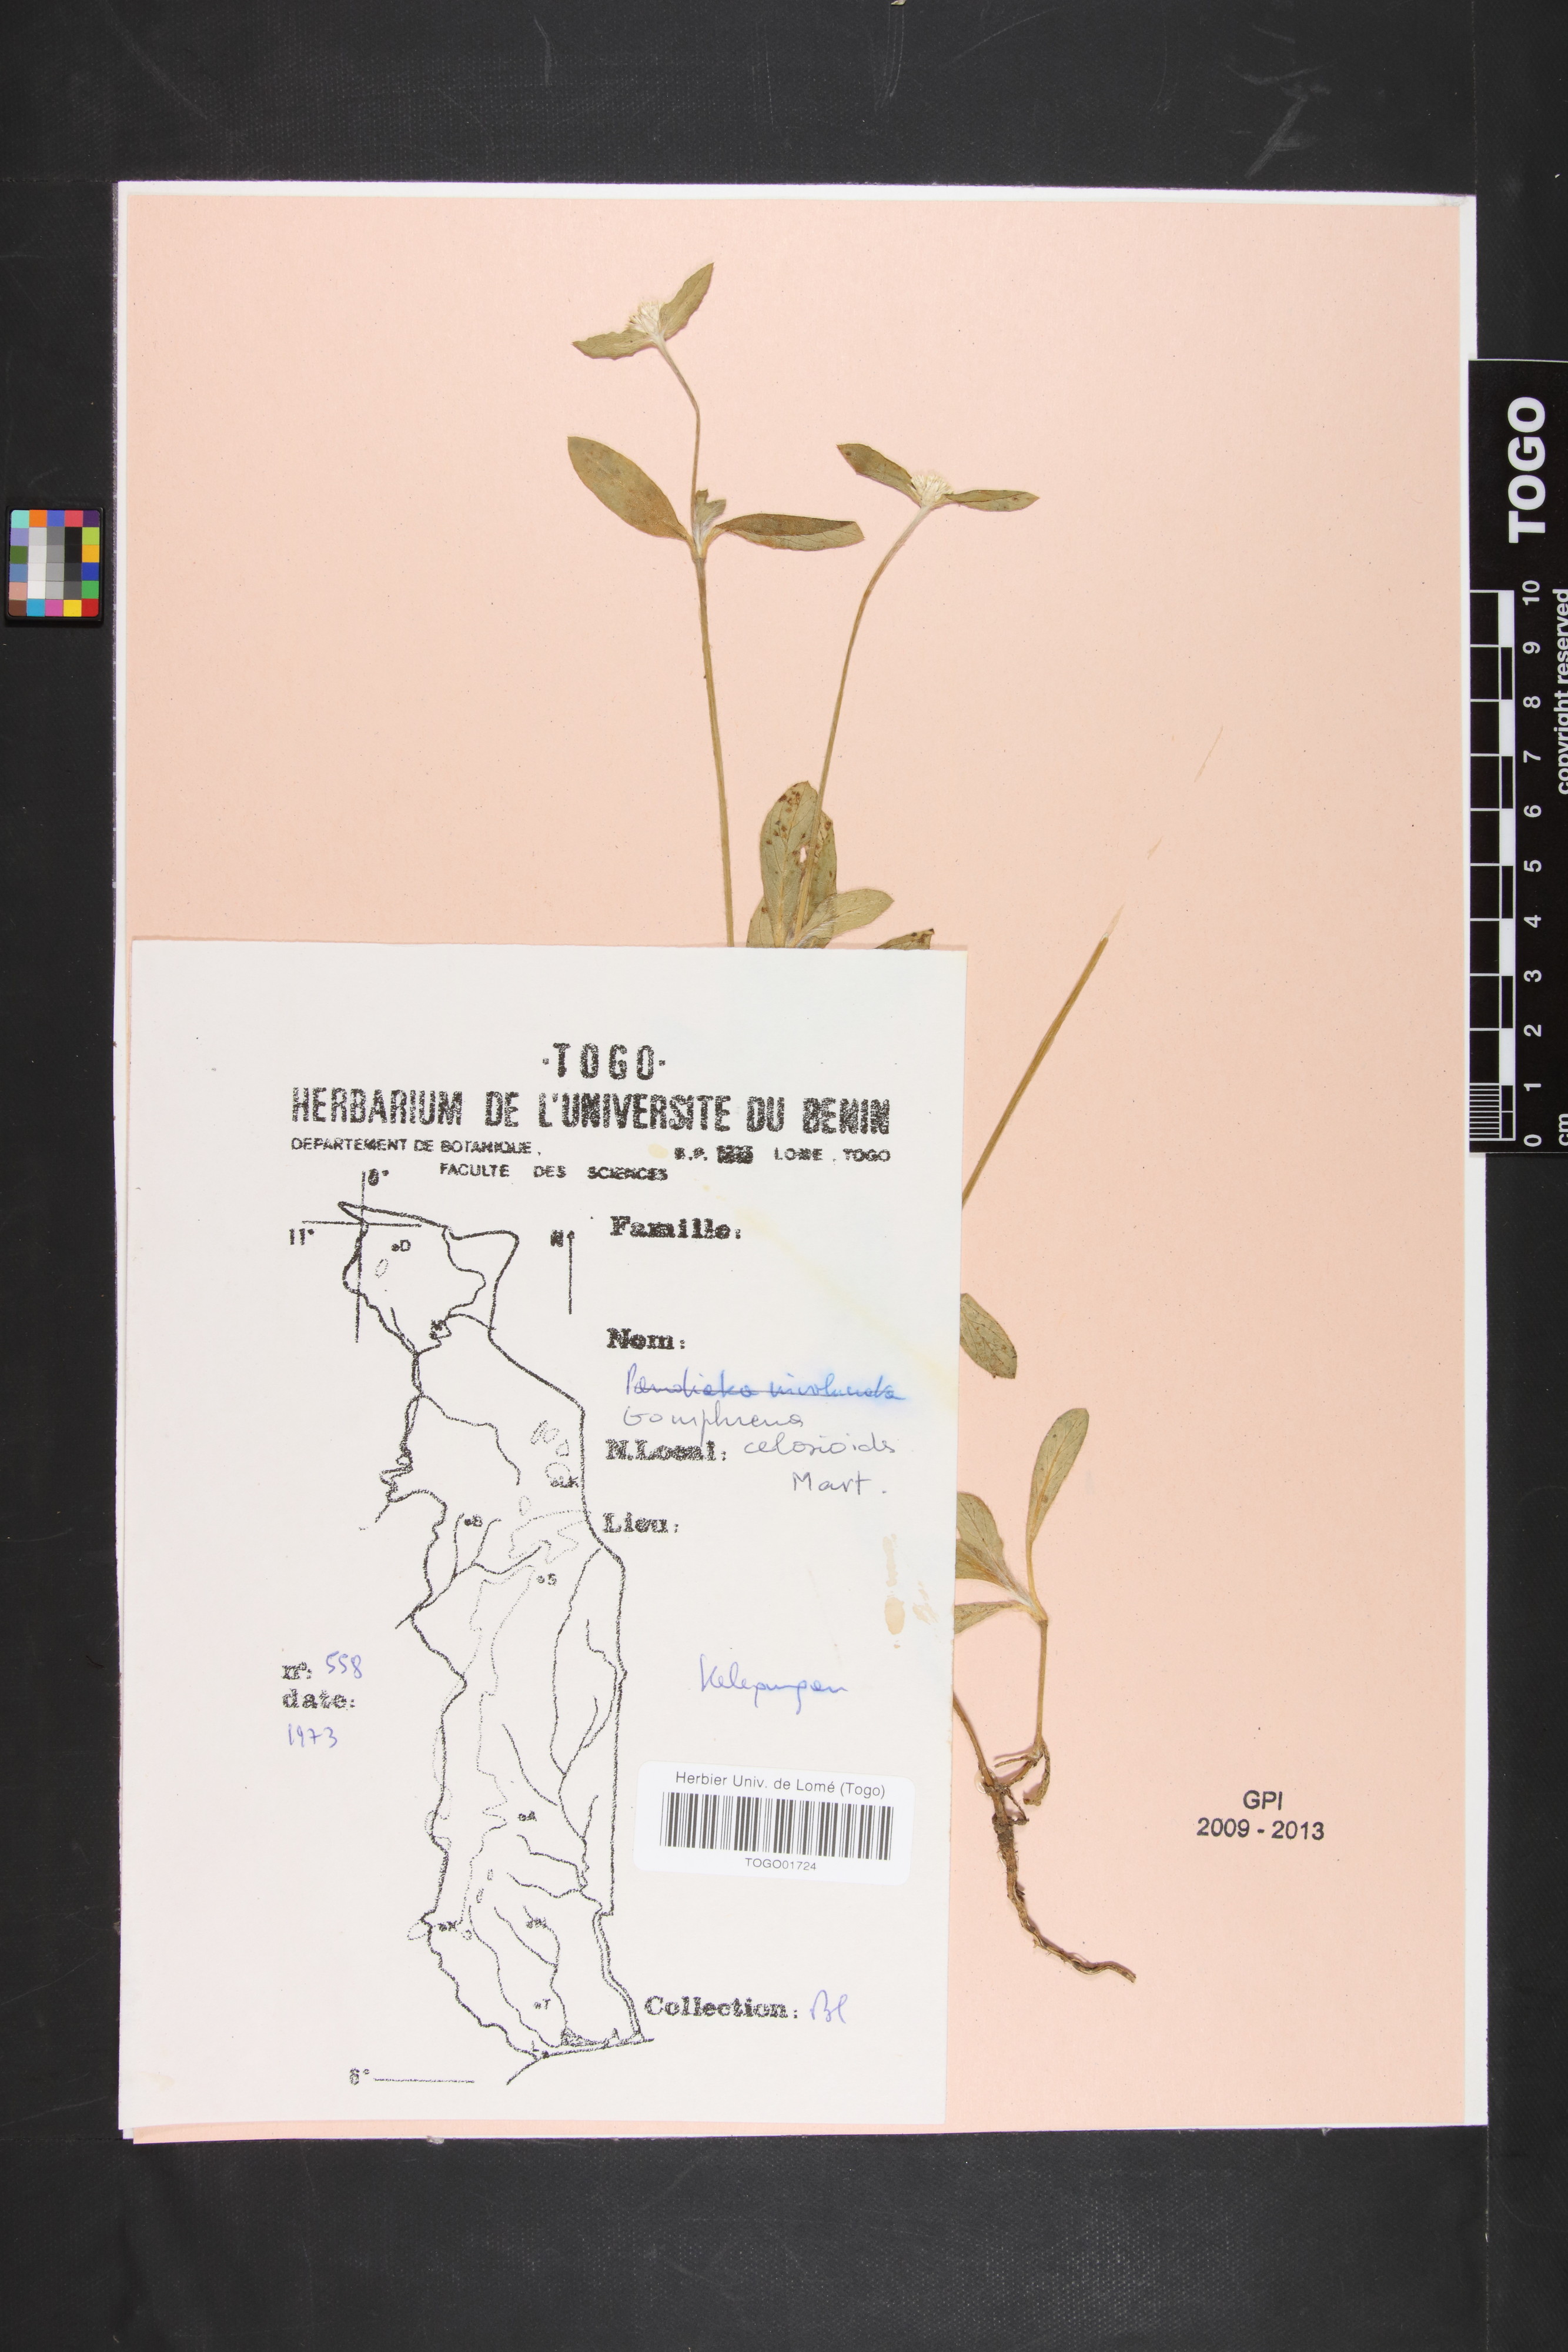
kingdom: Plantae
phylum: Tracheophyta
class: Magnoliopsida
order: Caryophyllales
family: Amaranthaceae
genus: Gomphrena
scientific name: Gomphrena celosioides
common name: Gomphrena-weed
